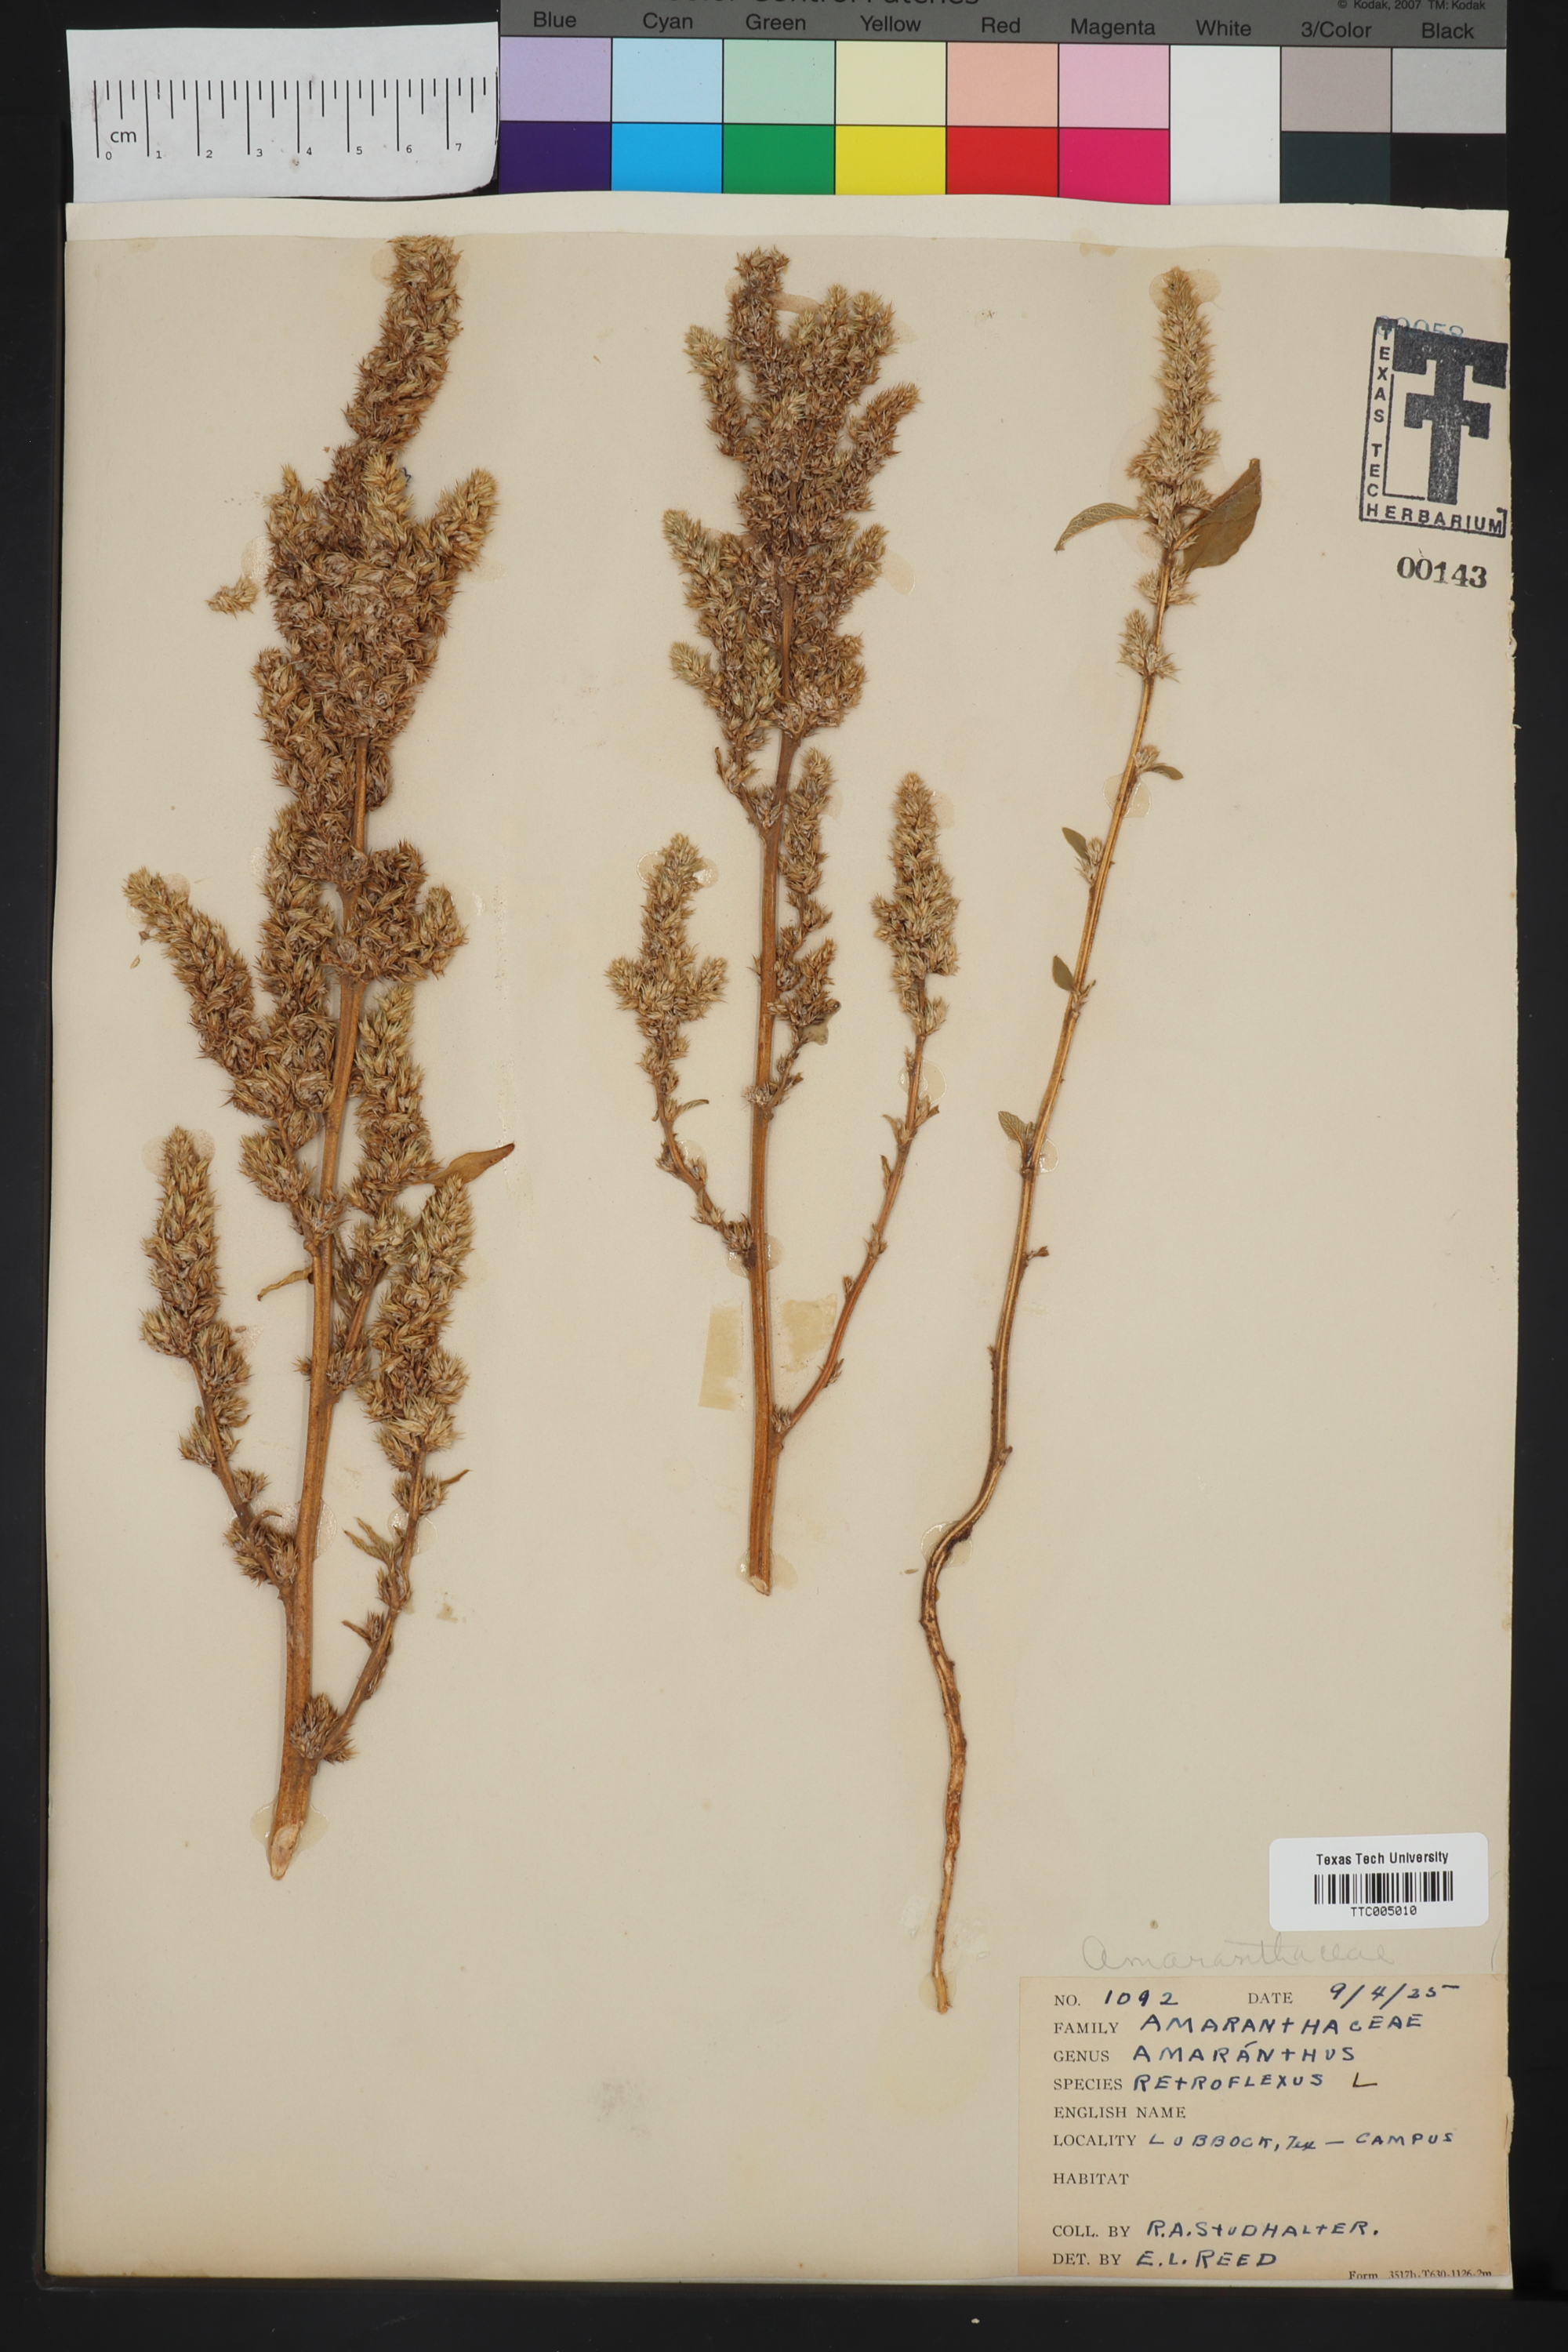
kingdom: Plantae
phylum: Tracheophyta
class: Magnoliopsida
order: Caryophyllales
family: Amaranthaceae
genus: Amaranthus
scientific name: Amaranthus retroflexus
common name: Redroot amaranth
